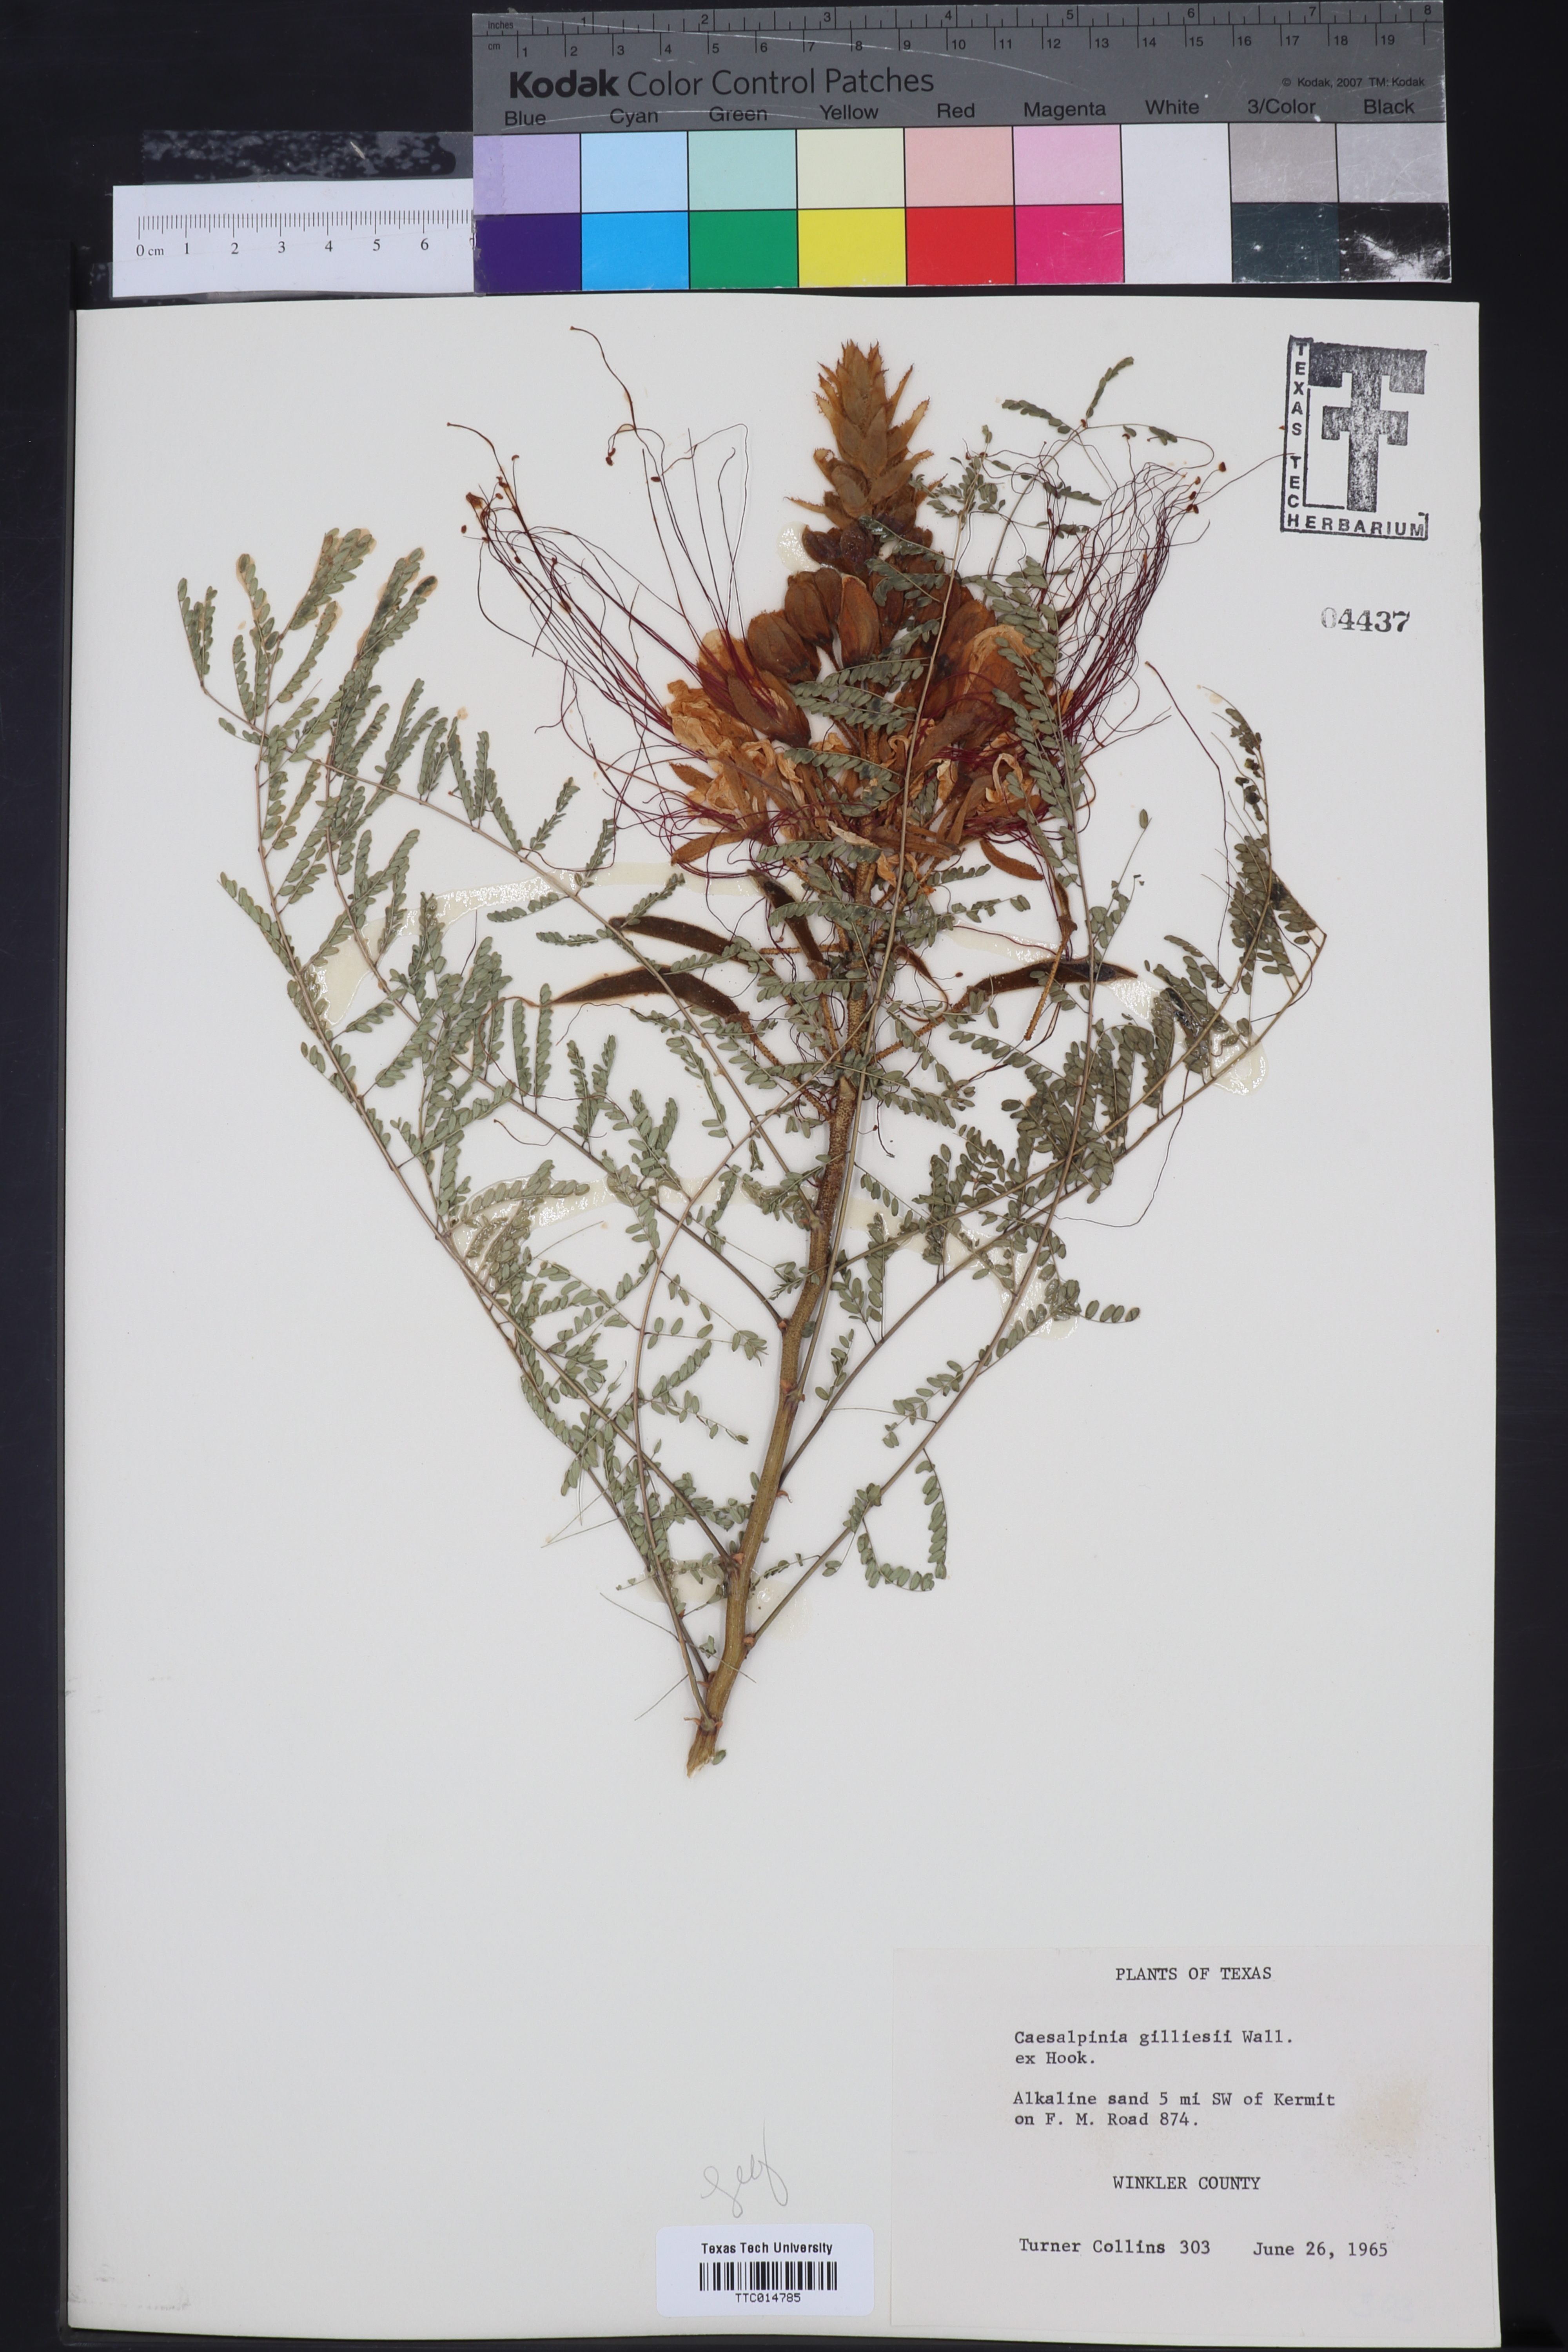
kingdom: Plantae
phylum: Tracheophyta
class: Magnoliopsida
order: Fabales
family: Fabaceae
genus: Erythrostemon
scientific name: Erythrostemon gilliesii
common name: Bird-of-paradise shrub
